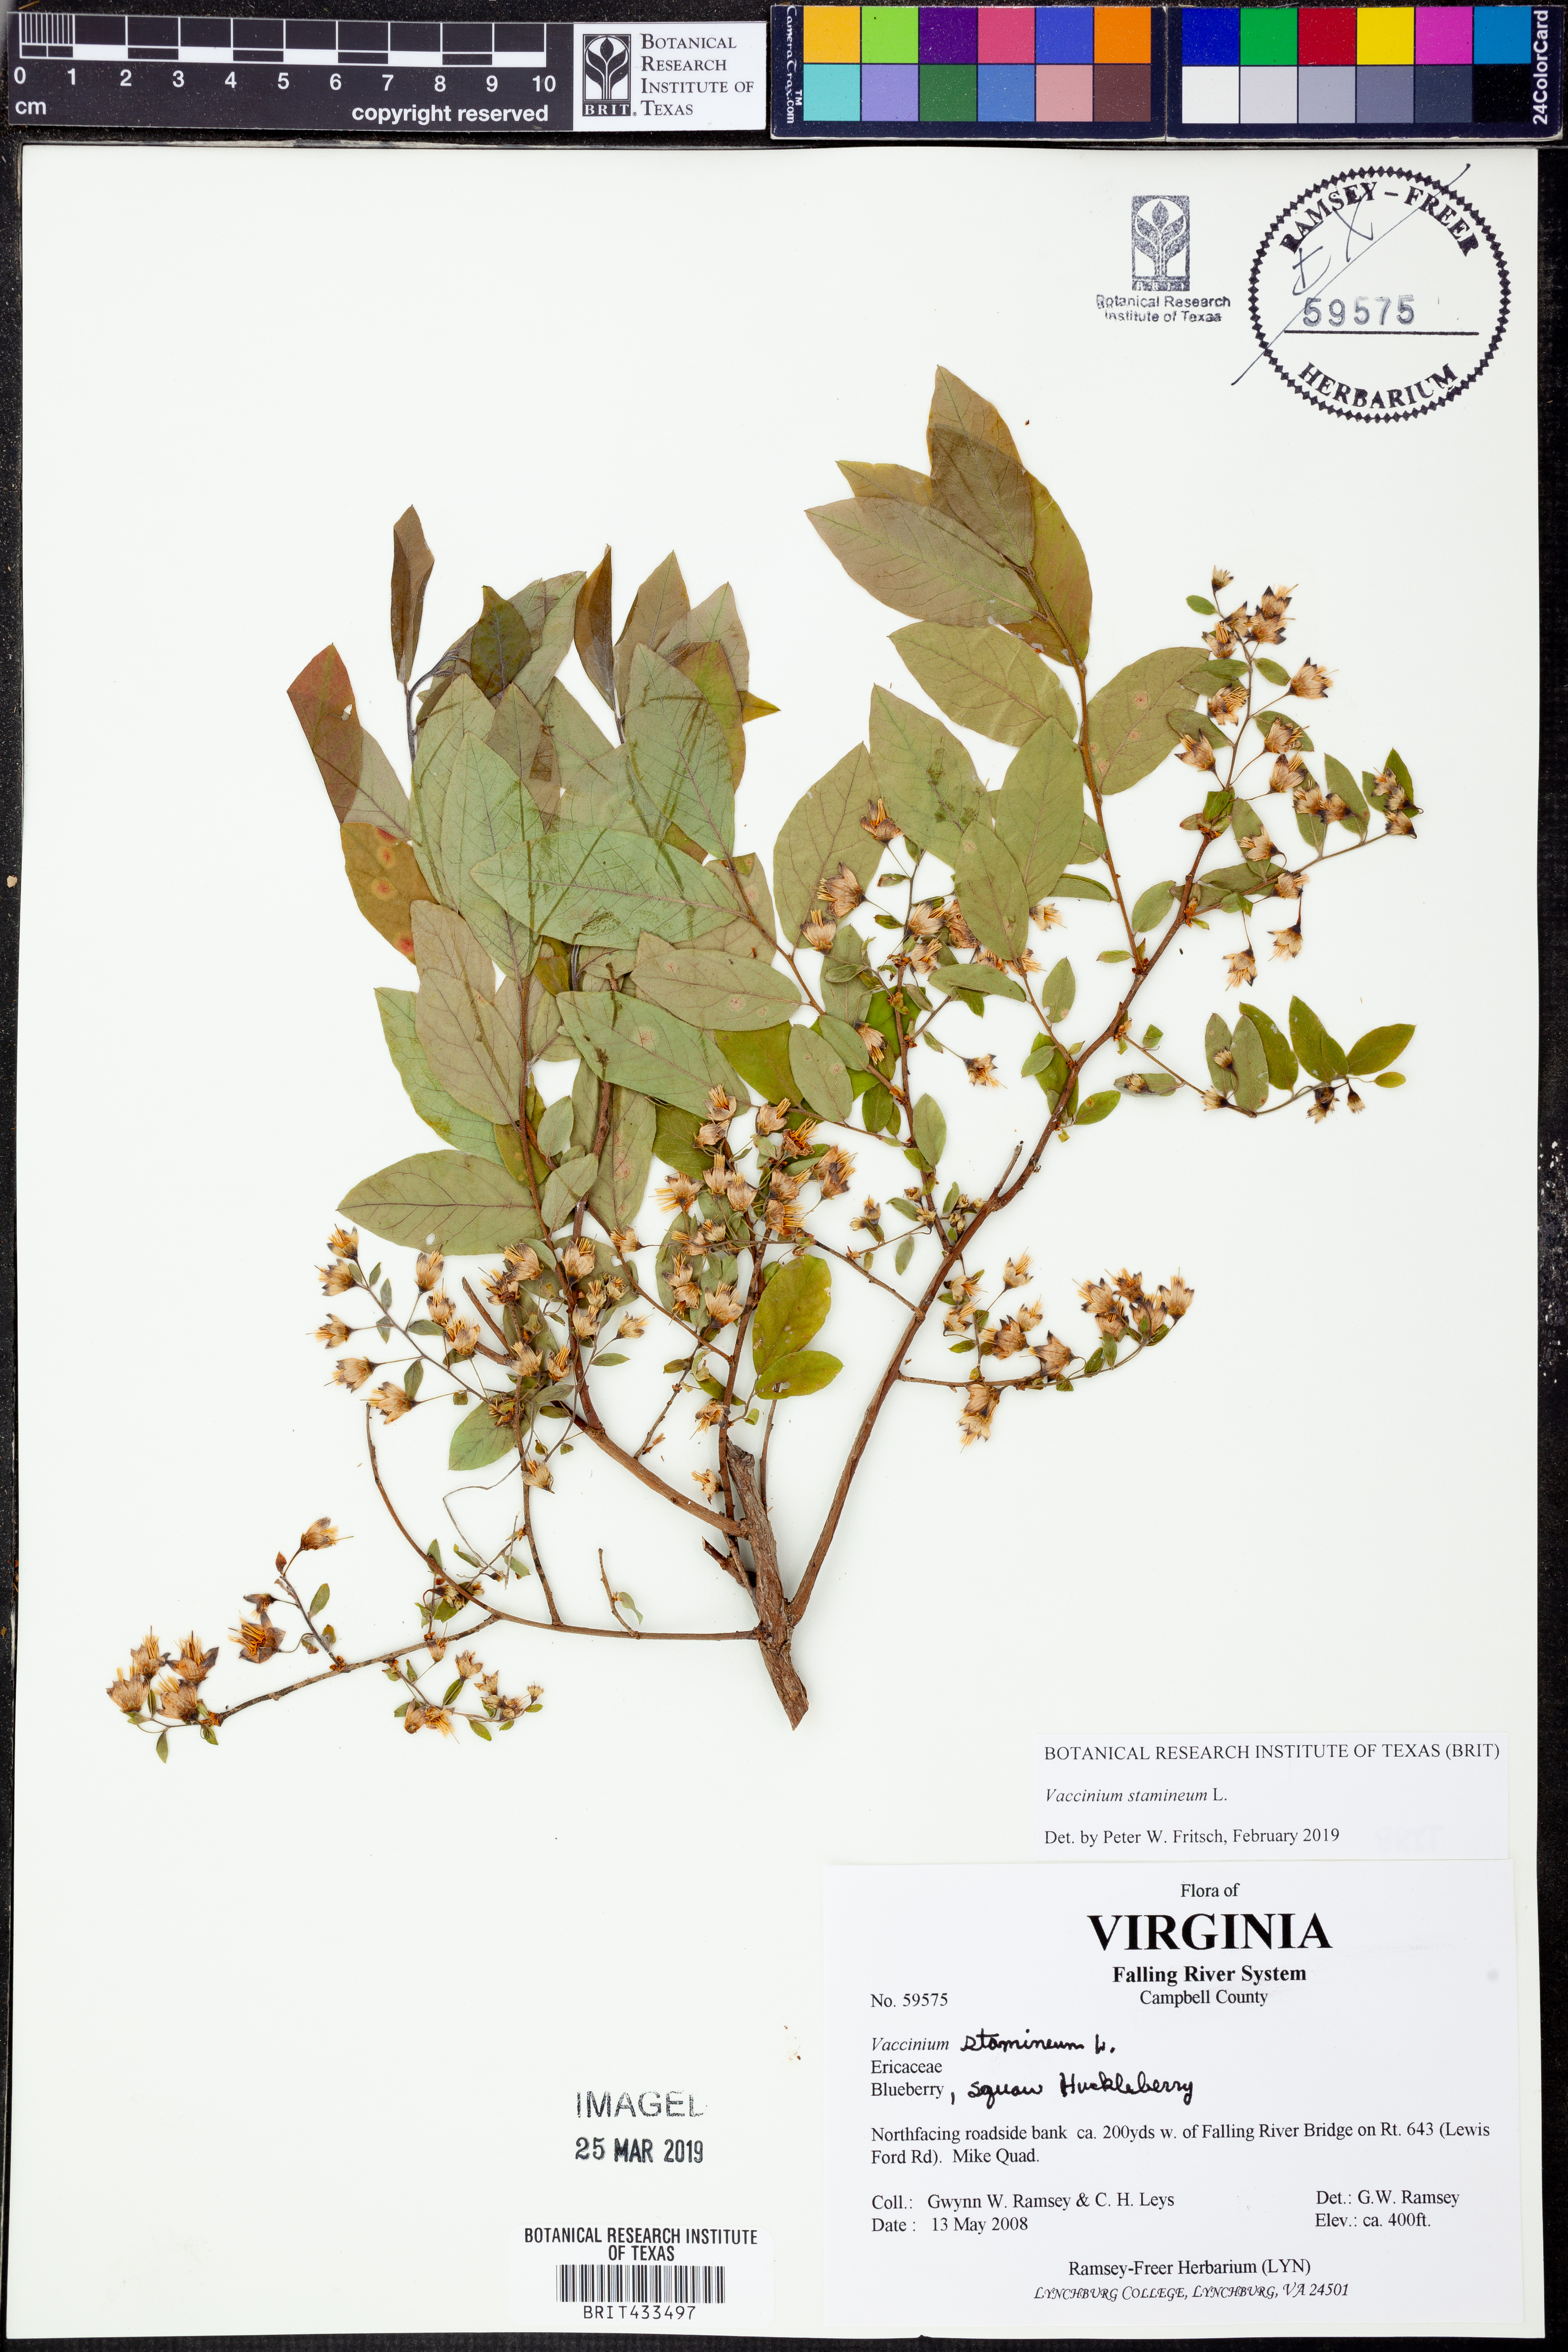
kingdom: Plantae
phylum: Tracheophyta
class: Magnoliopsida
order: Ericales
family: Ericaceae
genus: Vaccinium
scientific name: Vaccinium stamineum
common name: Deerberry
